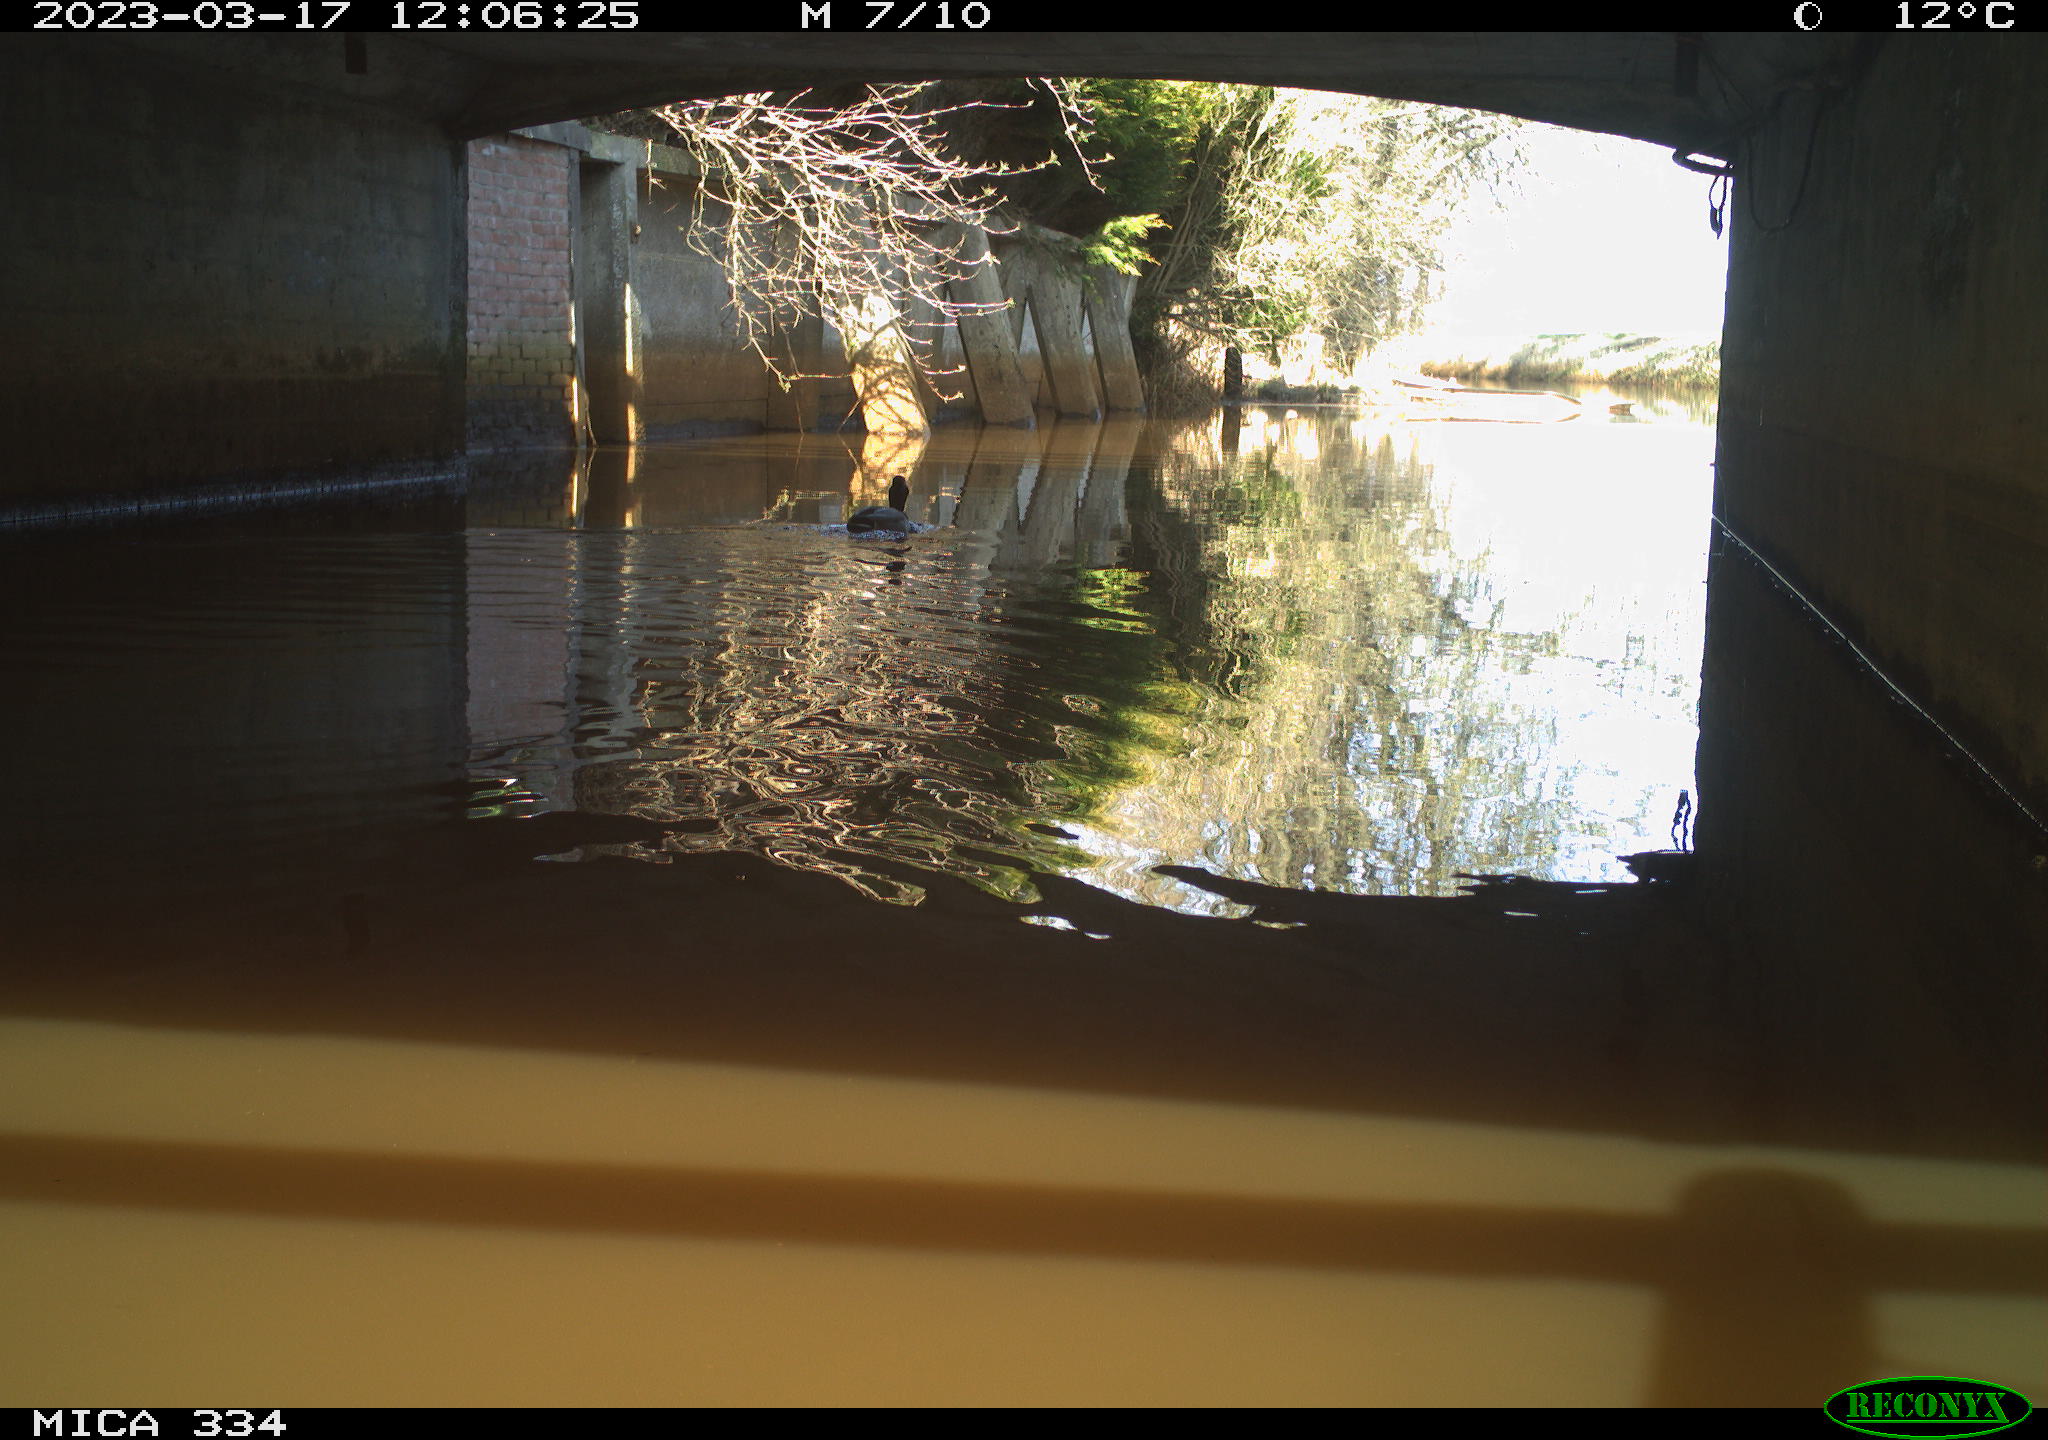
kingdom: Animalia
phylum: Chordata
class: Aves
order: Anseriformes
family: Anatidae
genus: Anas
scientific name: Anas
